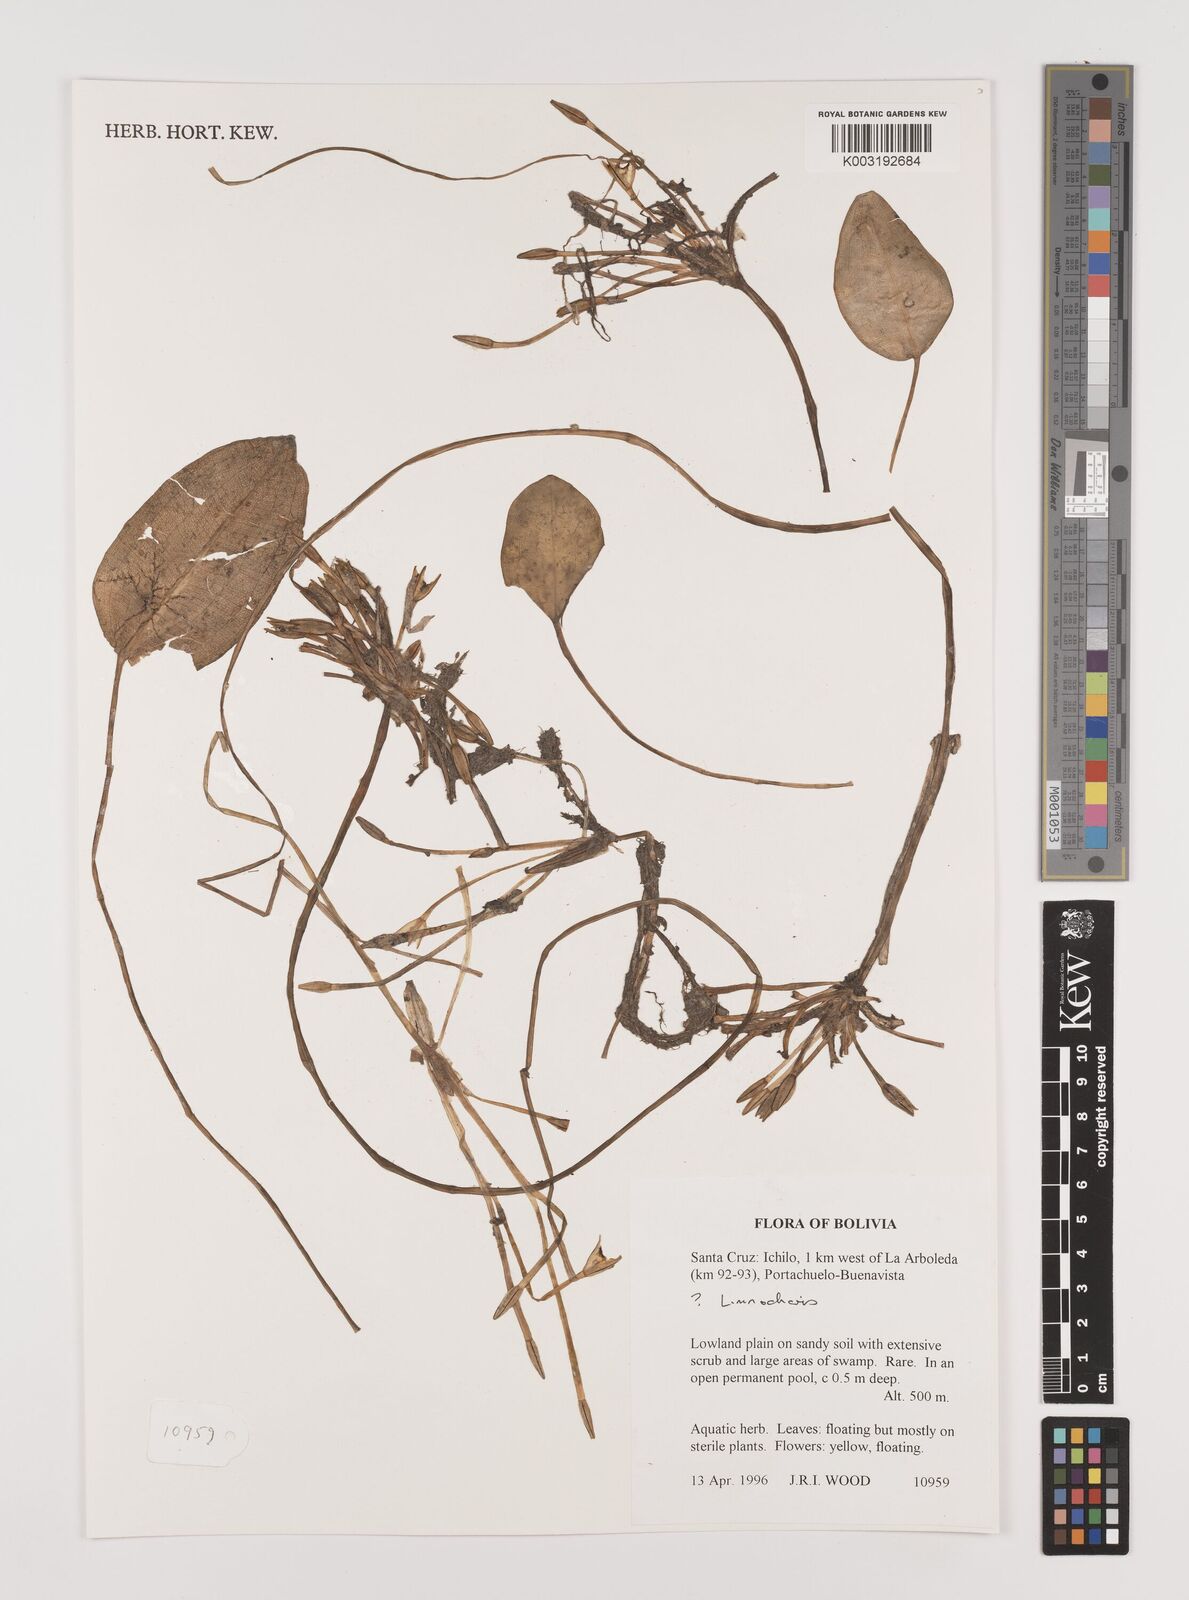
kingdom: Plantae
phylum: Tracheophyta
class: Liliopsida
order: Alismatales
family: Alismataceae
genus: Limnocharis
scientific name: Limnocharis
